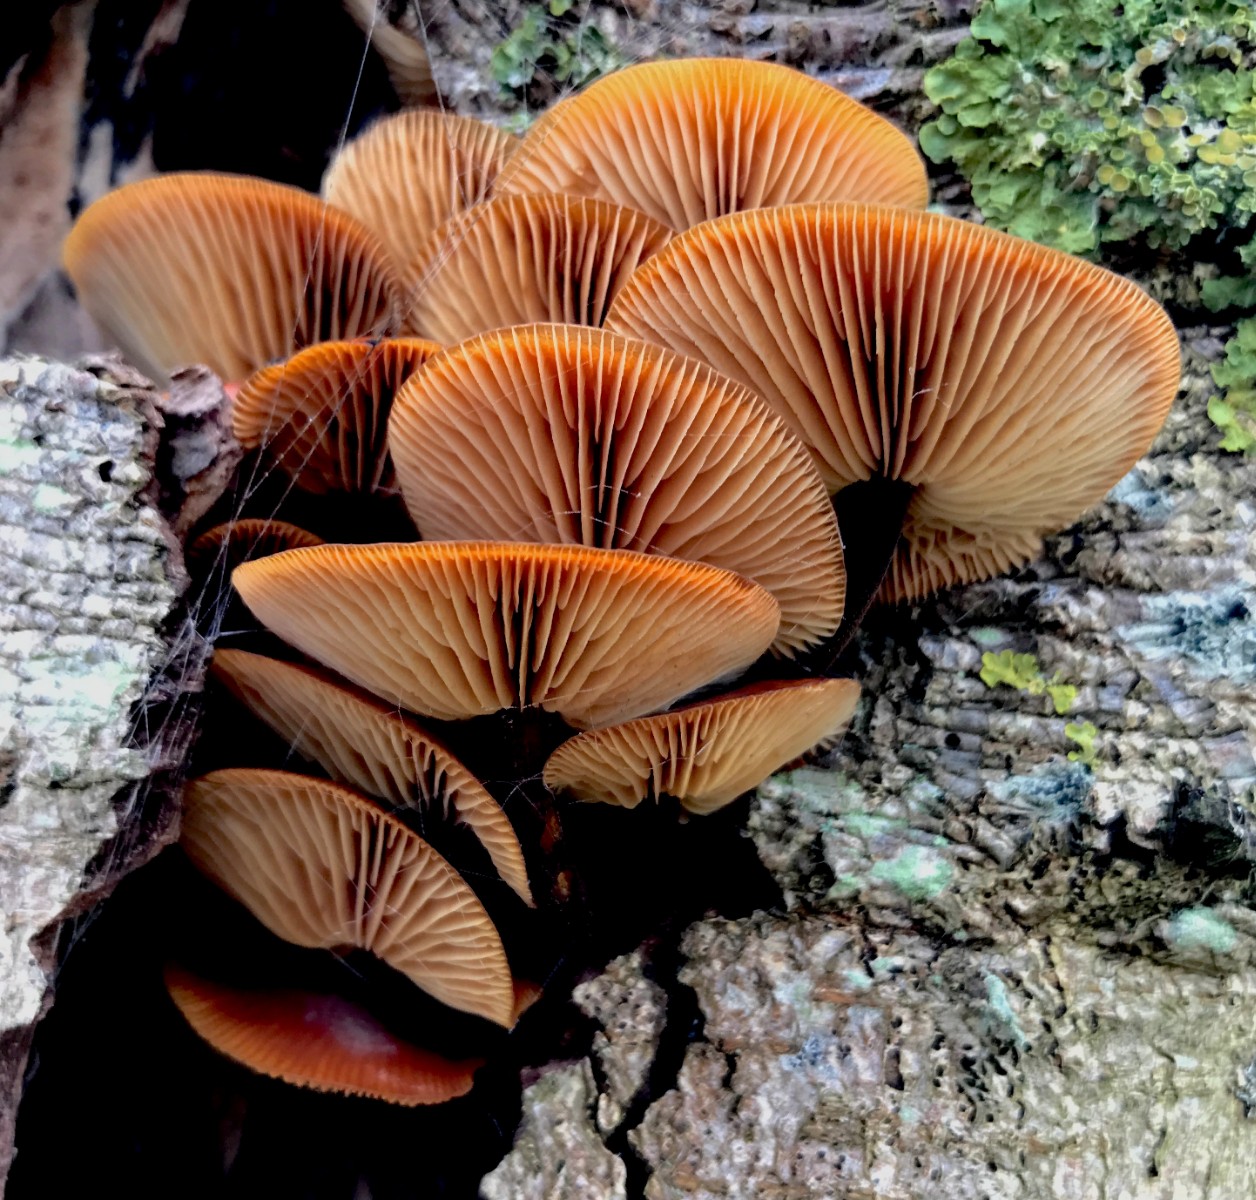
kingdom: Fungi
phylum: Basidiomycota
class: Agaricomycetes
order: Agaricales
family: Physalacriaceae
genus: Flammulina
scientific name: Flammulina velutipes
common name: gul fløjlsfod
